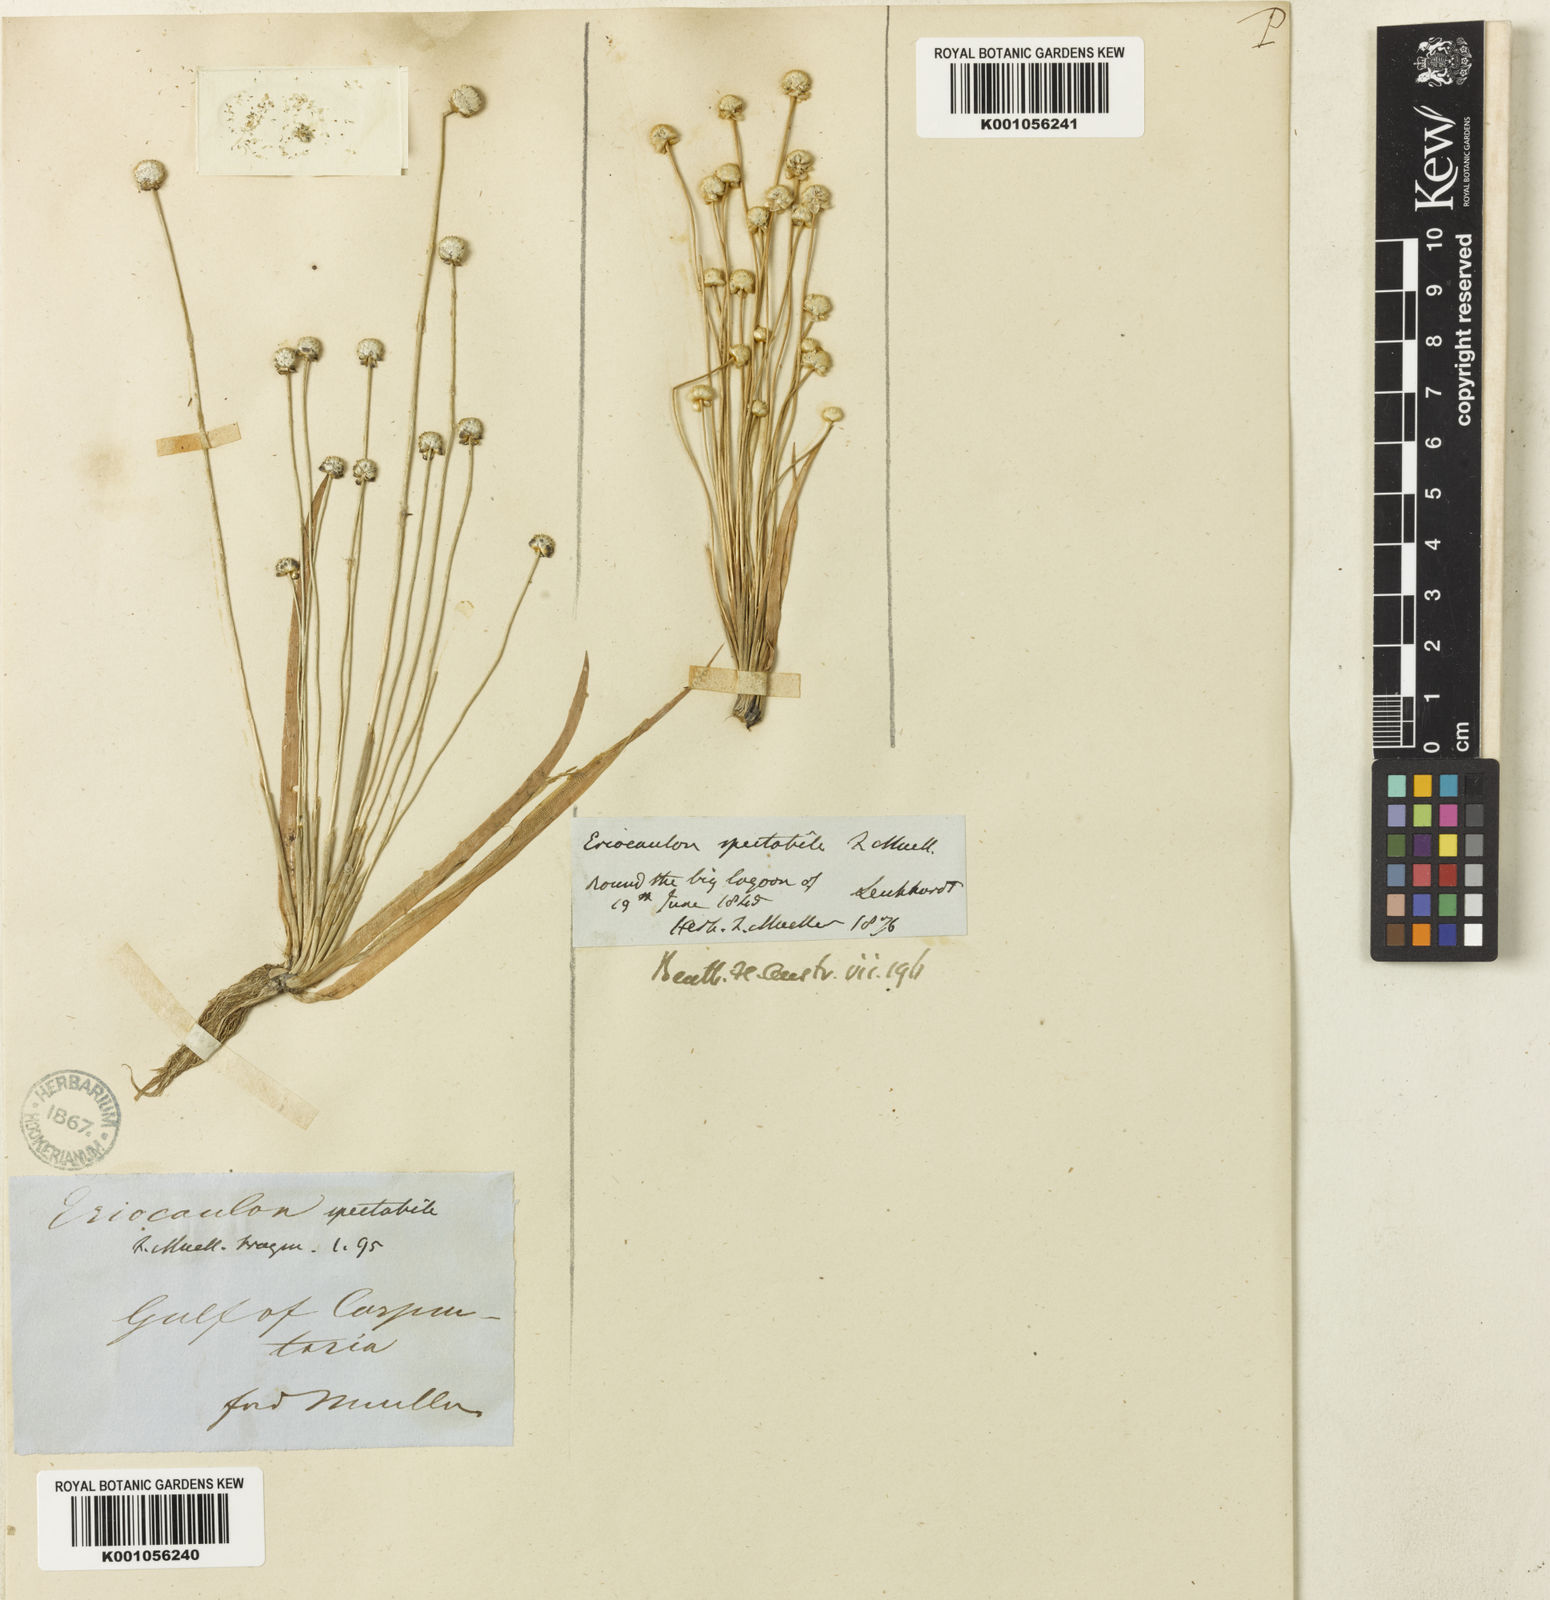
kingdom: Plantae
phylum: Tracheophyta
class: Liliopsida
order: Poales
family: Eriocaulaceae
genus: Eriocaulon
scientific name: Eriocaulon spectabile
